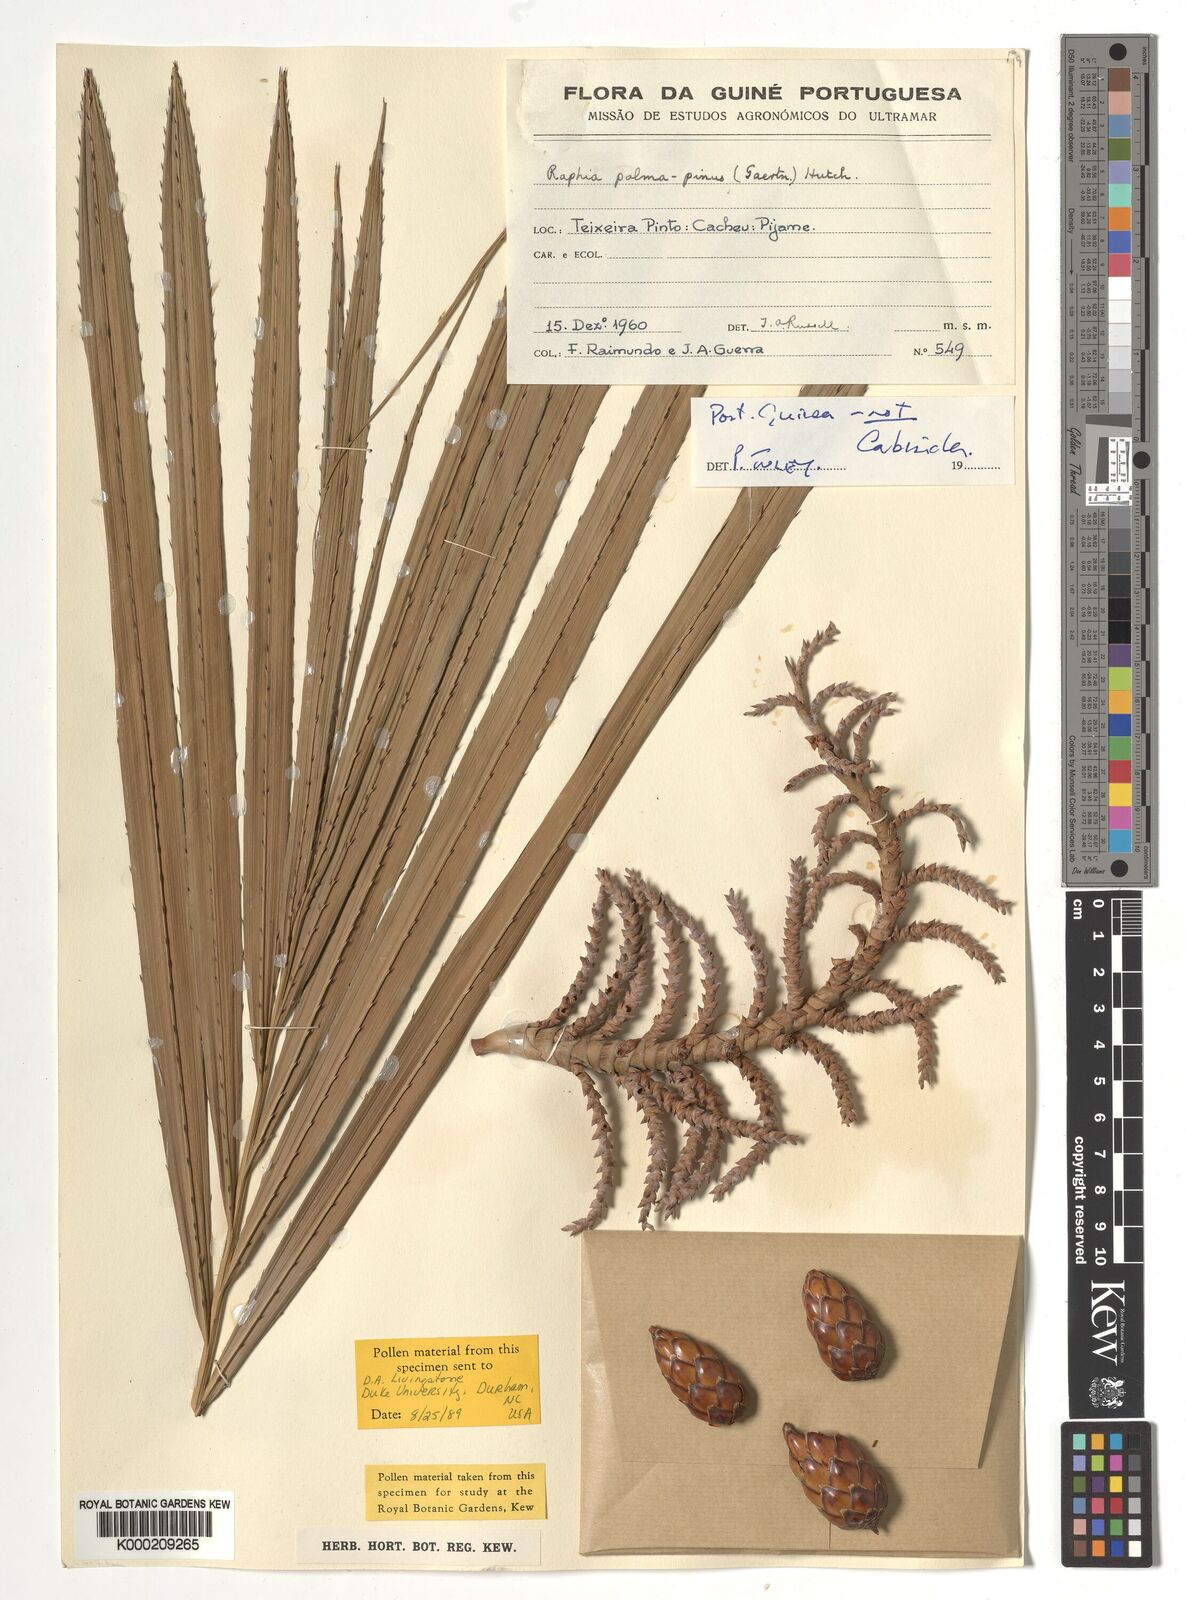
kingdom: Plantae
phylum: Tracheophyta
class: Liliopsida
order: Arecales
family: Arecaceae
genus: Raphia
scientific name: Raphia palma-pinus
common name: Raphia palm
